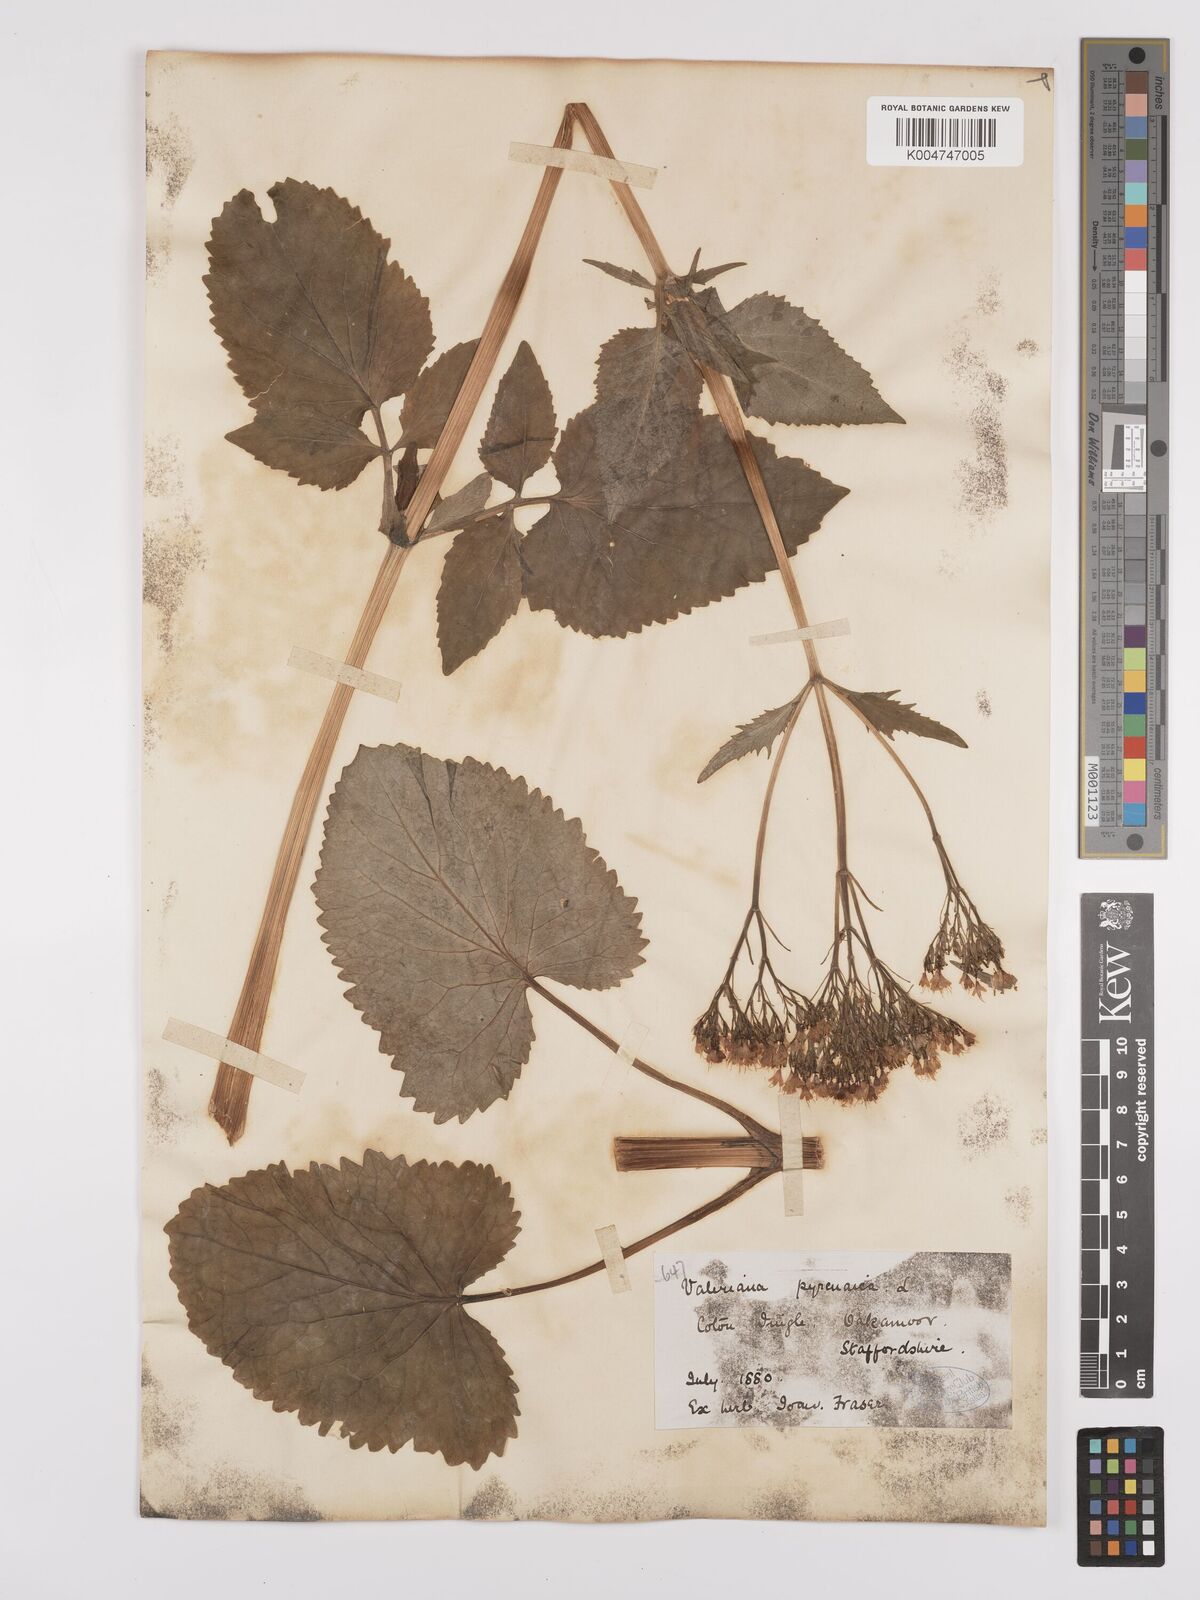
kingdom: Plantae
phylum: Tracheophyta
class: Magnoliopsida
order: Dipsacales
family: Caprifoliaceae
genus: Valeriana
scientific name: Valeriana pyrenaica
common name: Pyrenean valerian
